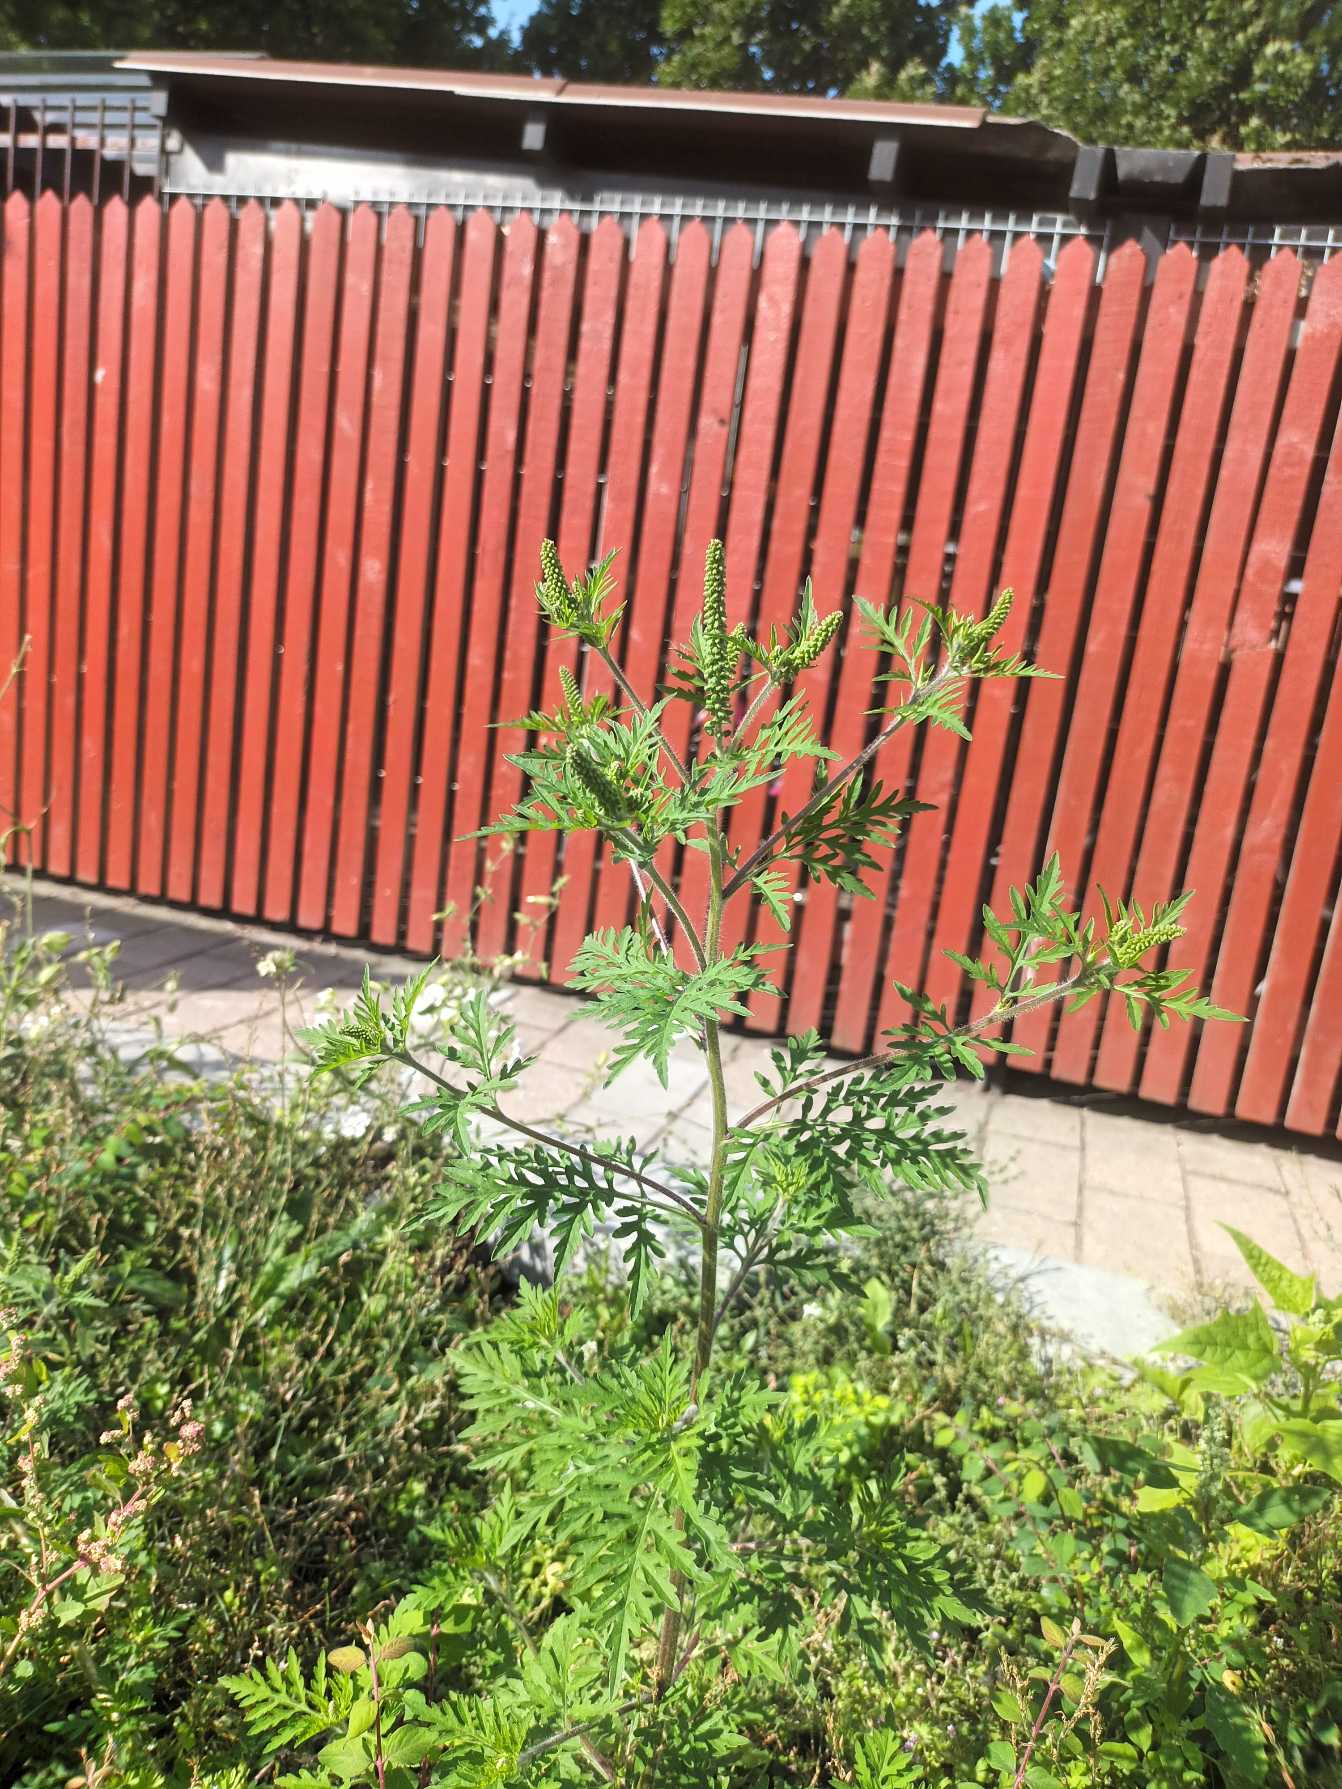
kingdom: Plantae
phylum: Tracheophyta
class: Magnoliopsida
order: Asterales
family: Asteraceae
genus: Ambrosia
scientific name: Ambrosia artemisiifolia
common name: Bynke-ambrosie
